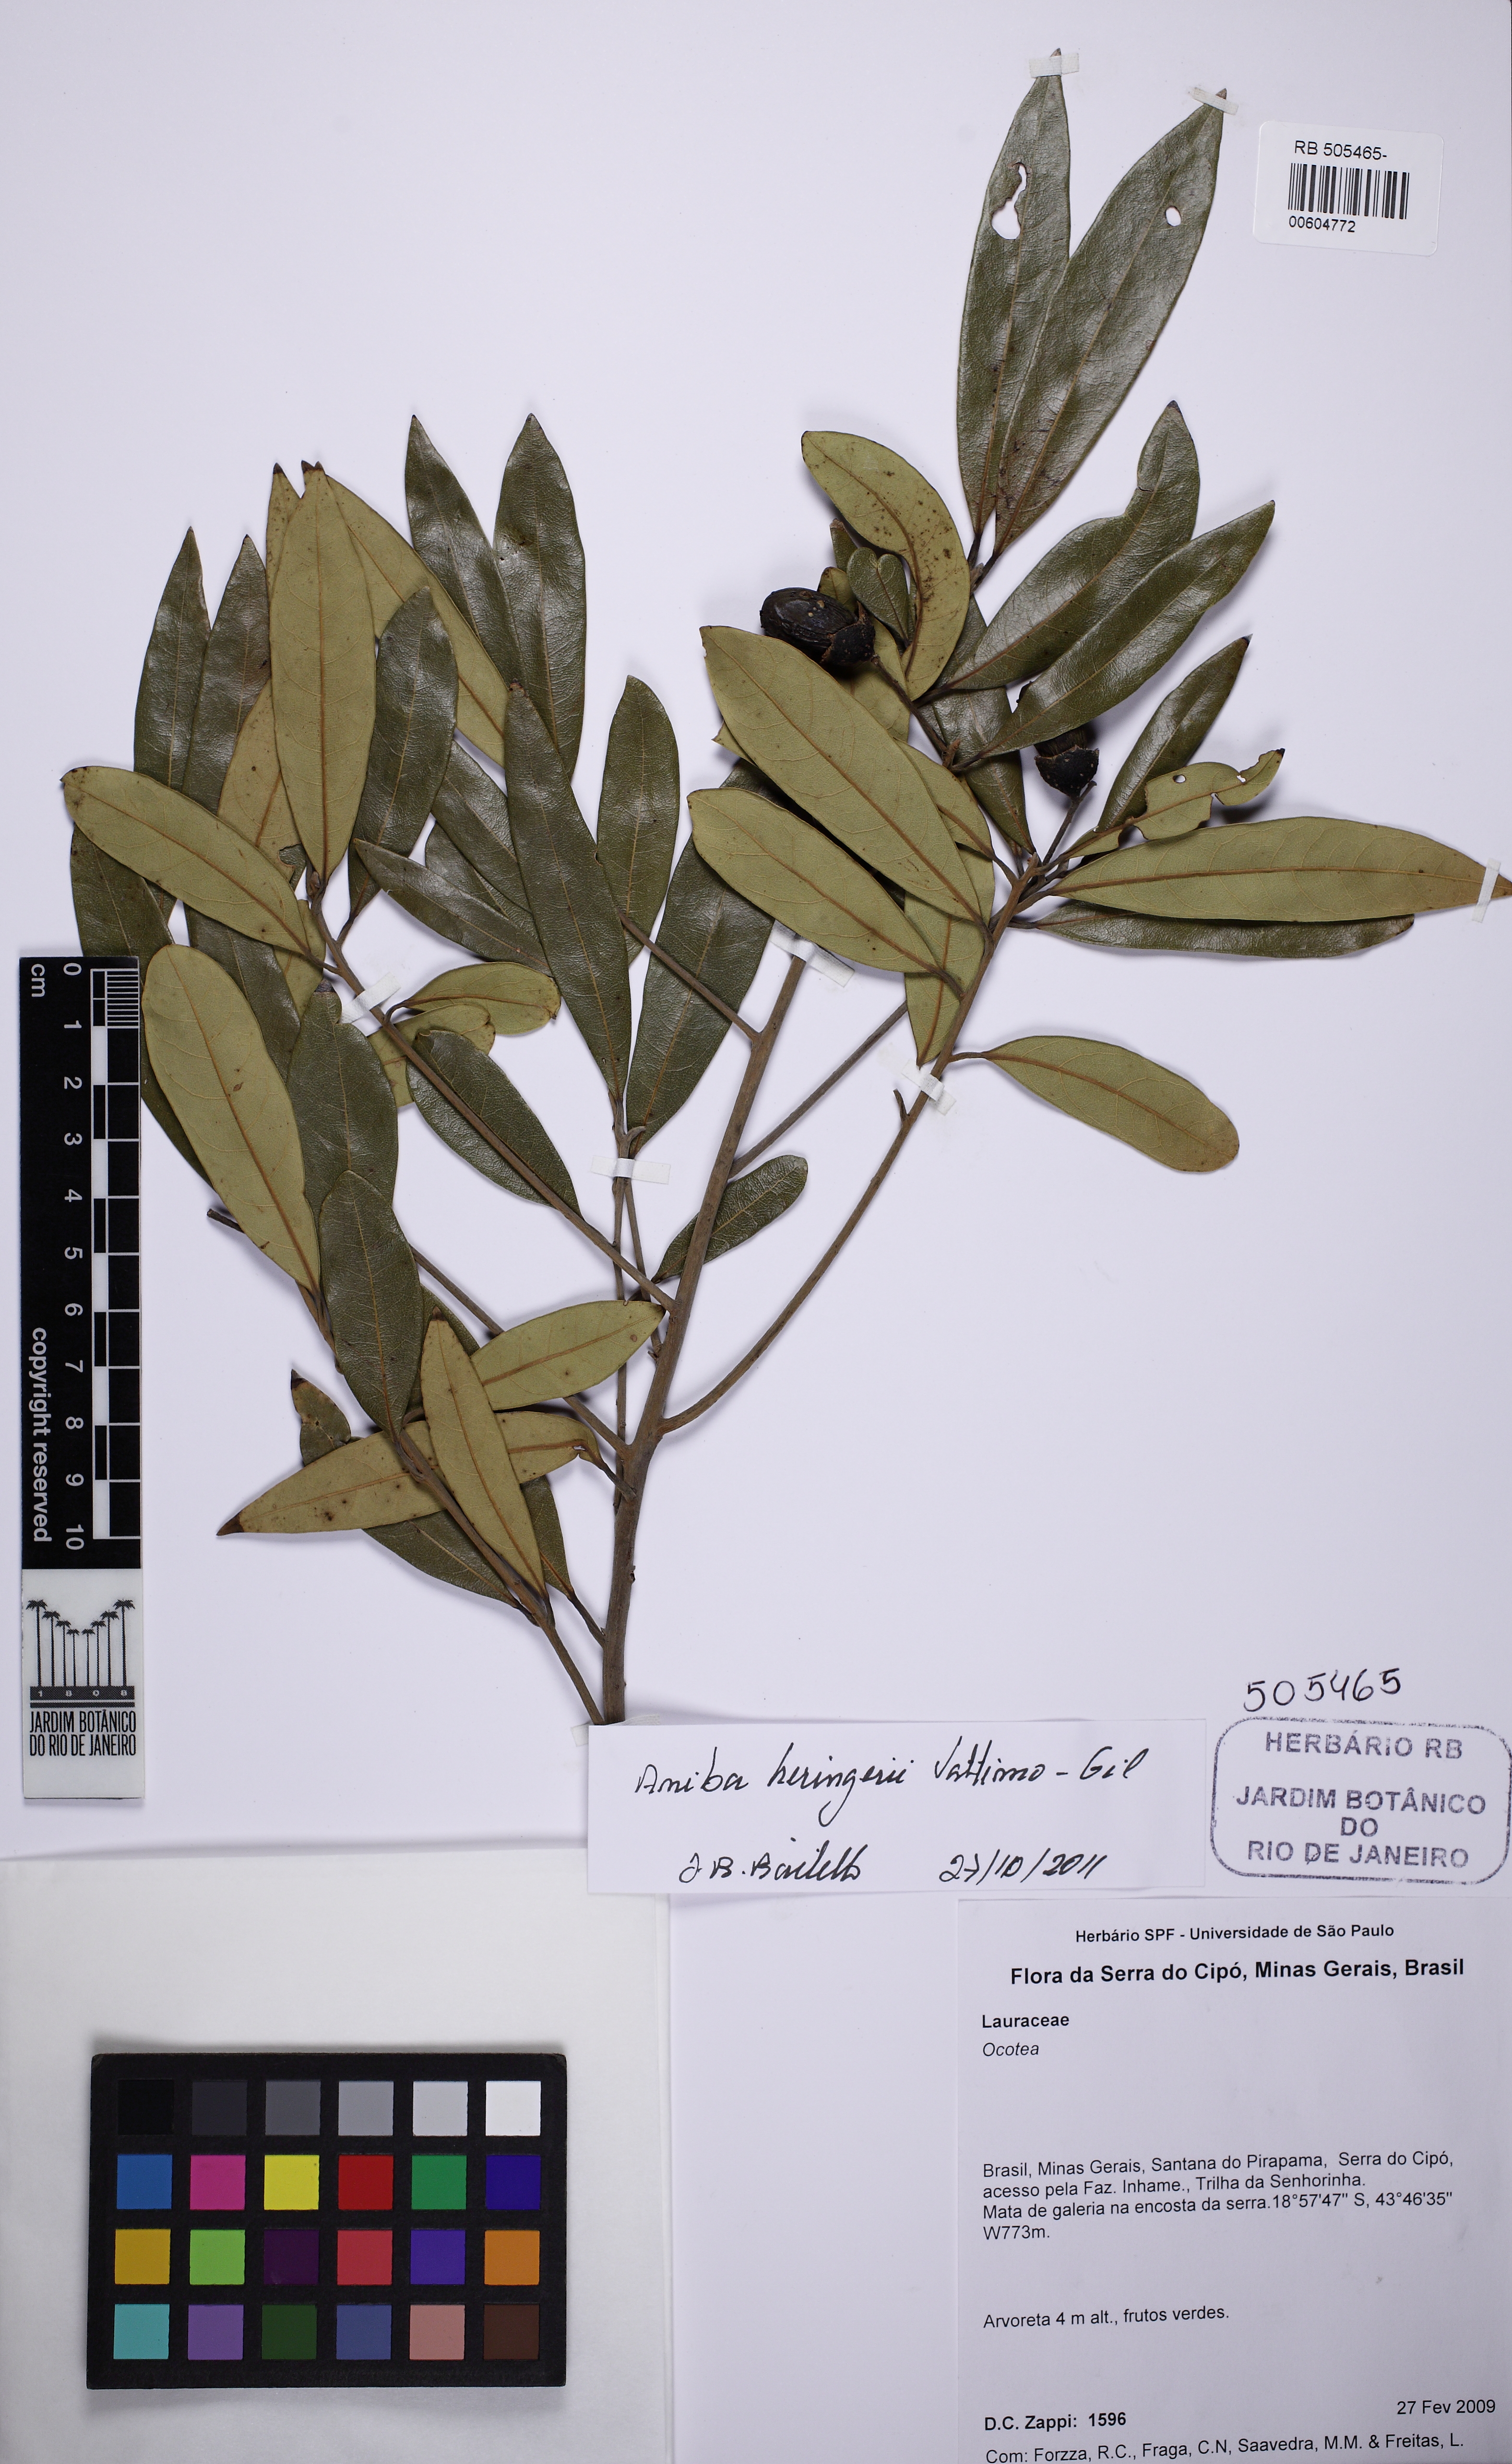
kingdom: Plantae
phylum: Tracheophyta
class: Magnoliopsida
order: Laurales
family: Lauraceae
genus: Aniba
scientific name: Aniba heringeri
